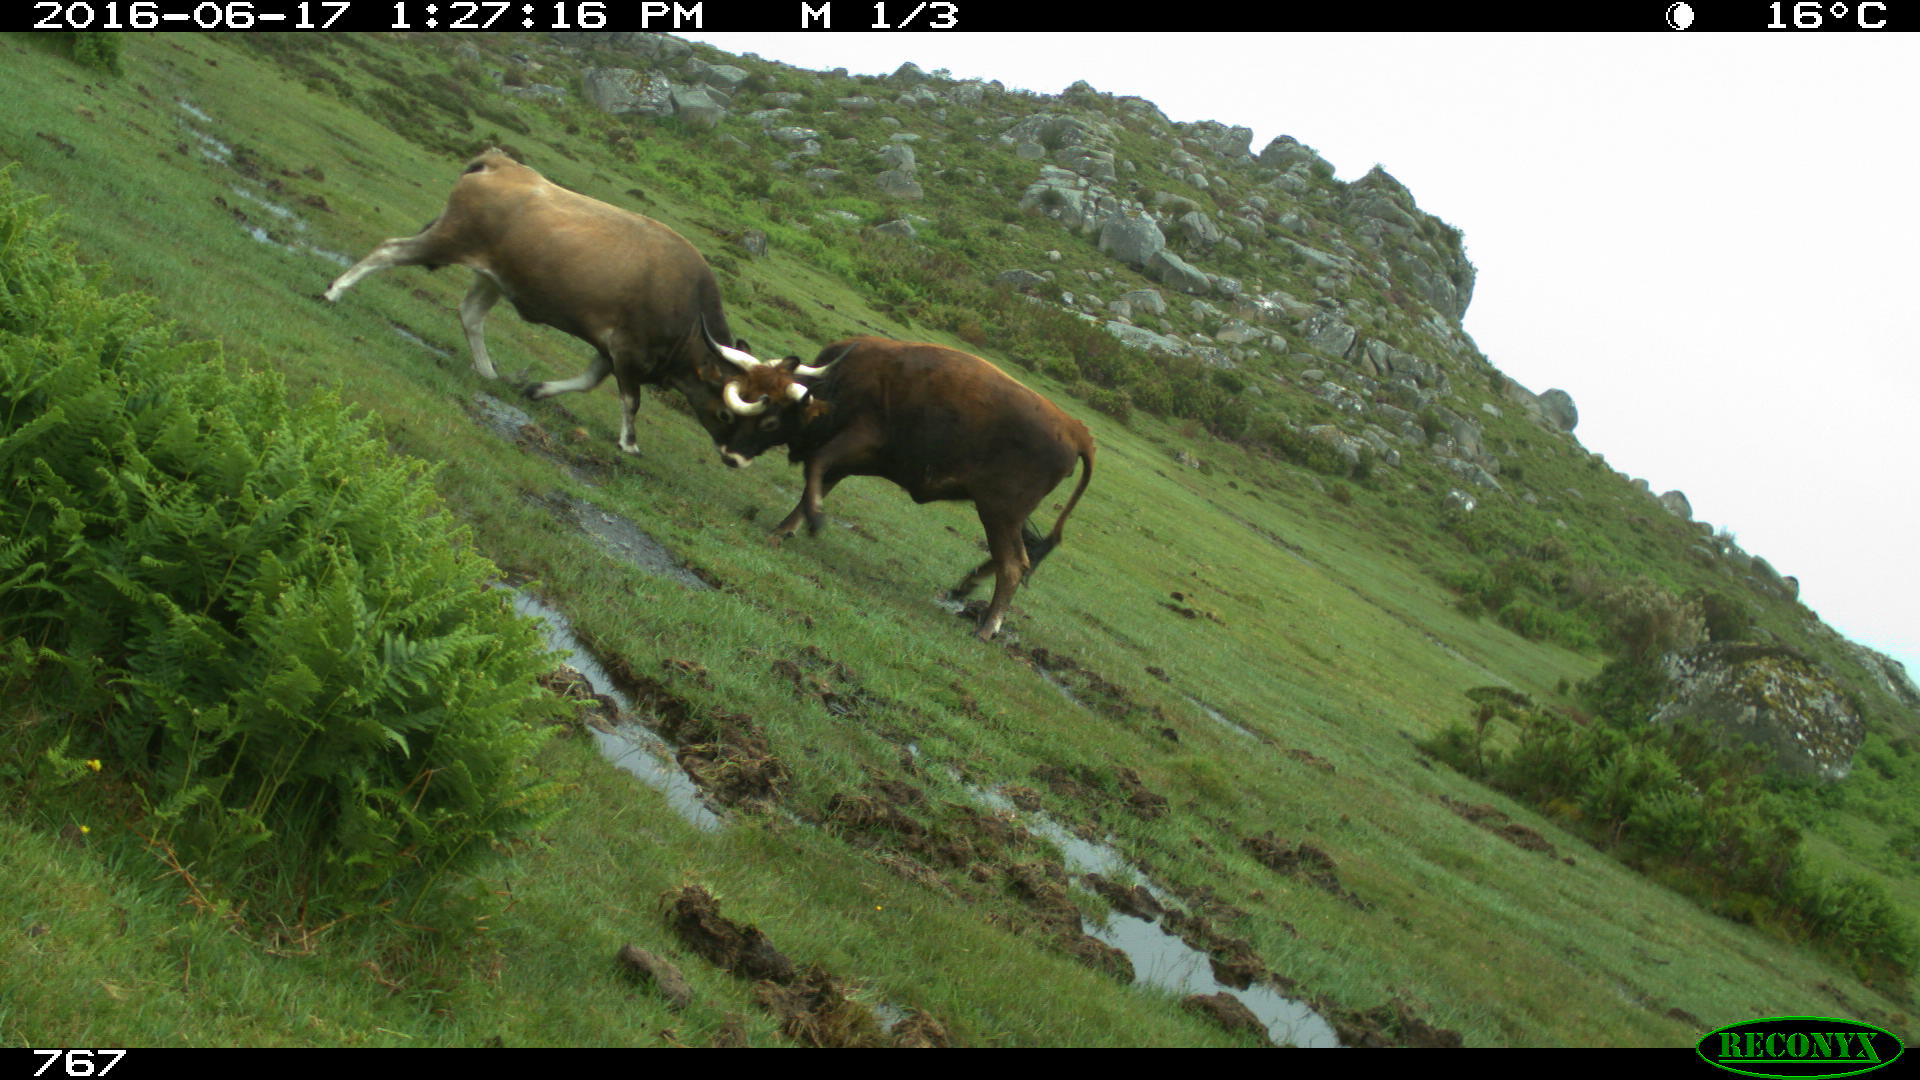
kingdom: Animalia
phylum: Chordata
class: Mammalia
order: Artiodactyla
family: Bovidae
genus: Bos
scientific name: Bos taurus
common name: Domesticated cattle
